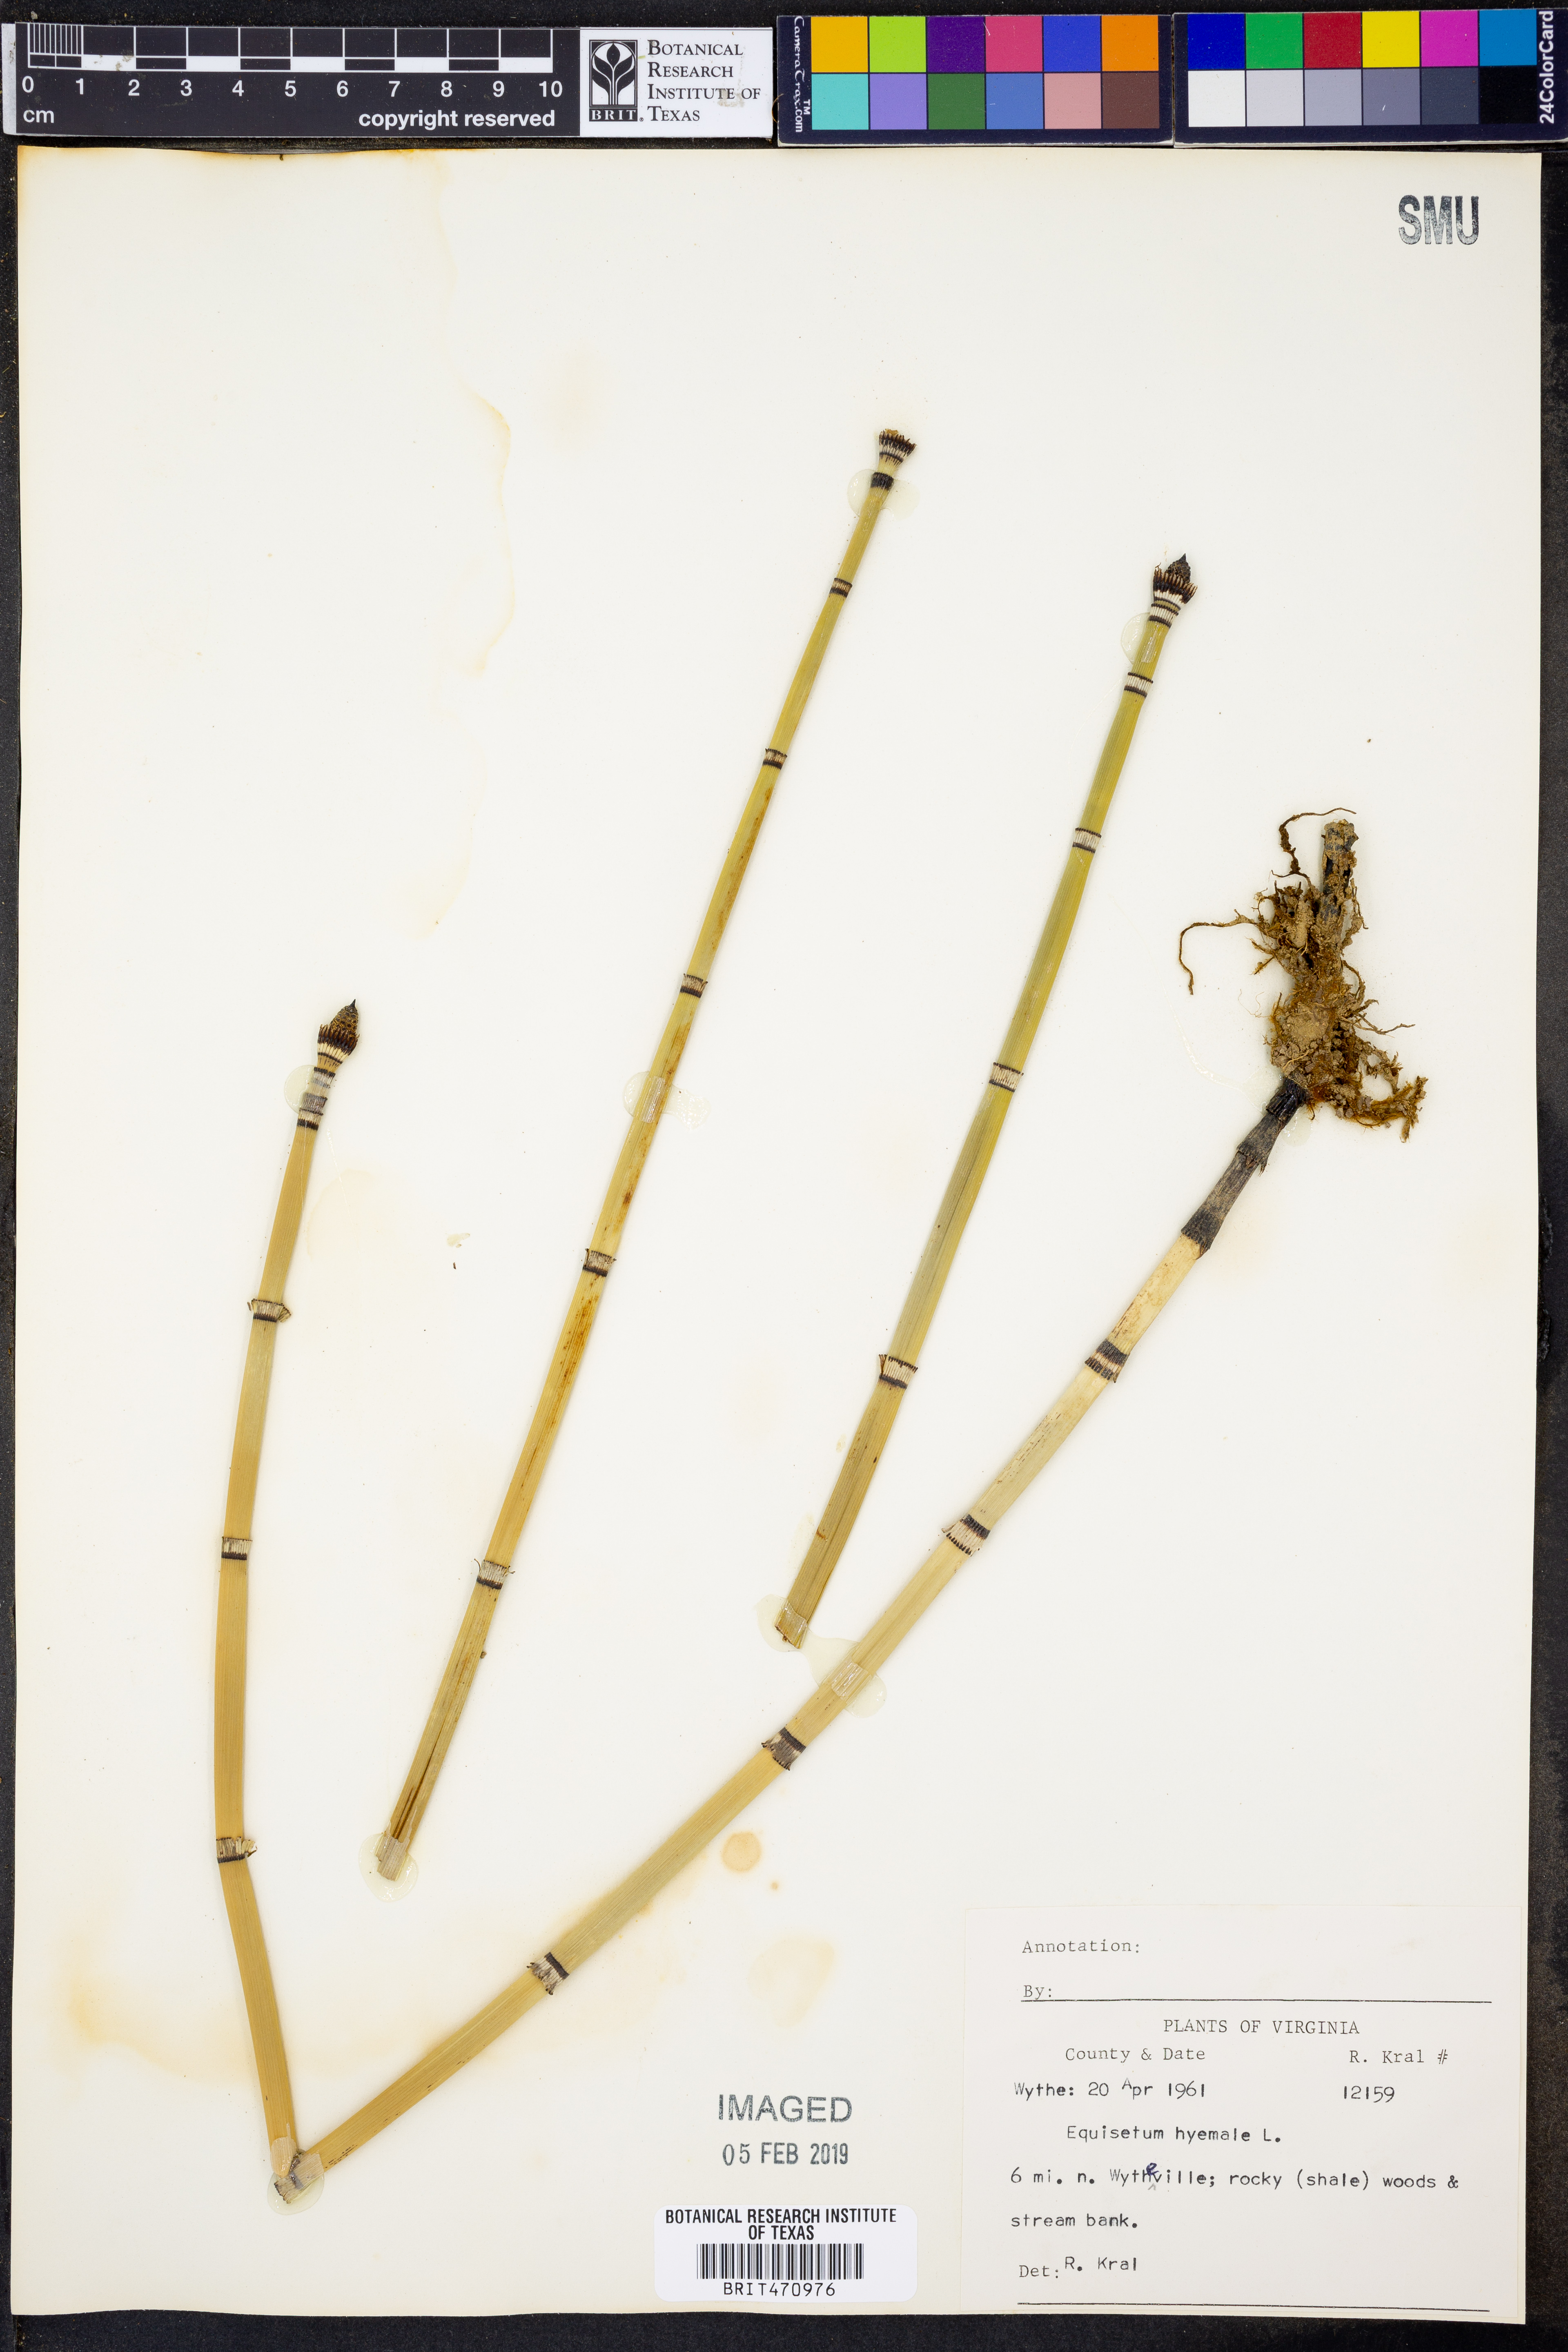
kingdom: Plantae
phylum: Tracheophyta
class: Polypodiopsida
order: Equisetales
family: Equisetaceae
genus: Equisetum
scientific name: Equisetum hyemale
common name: Rough horsetail
